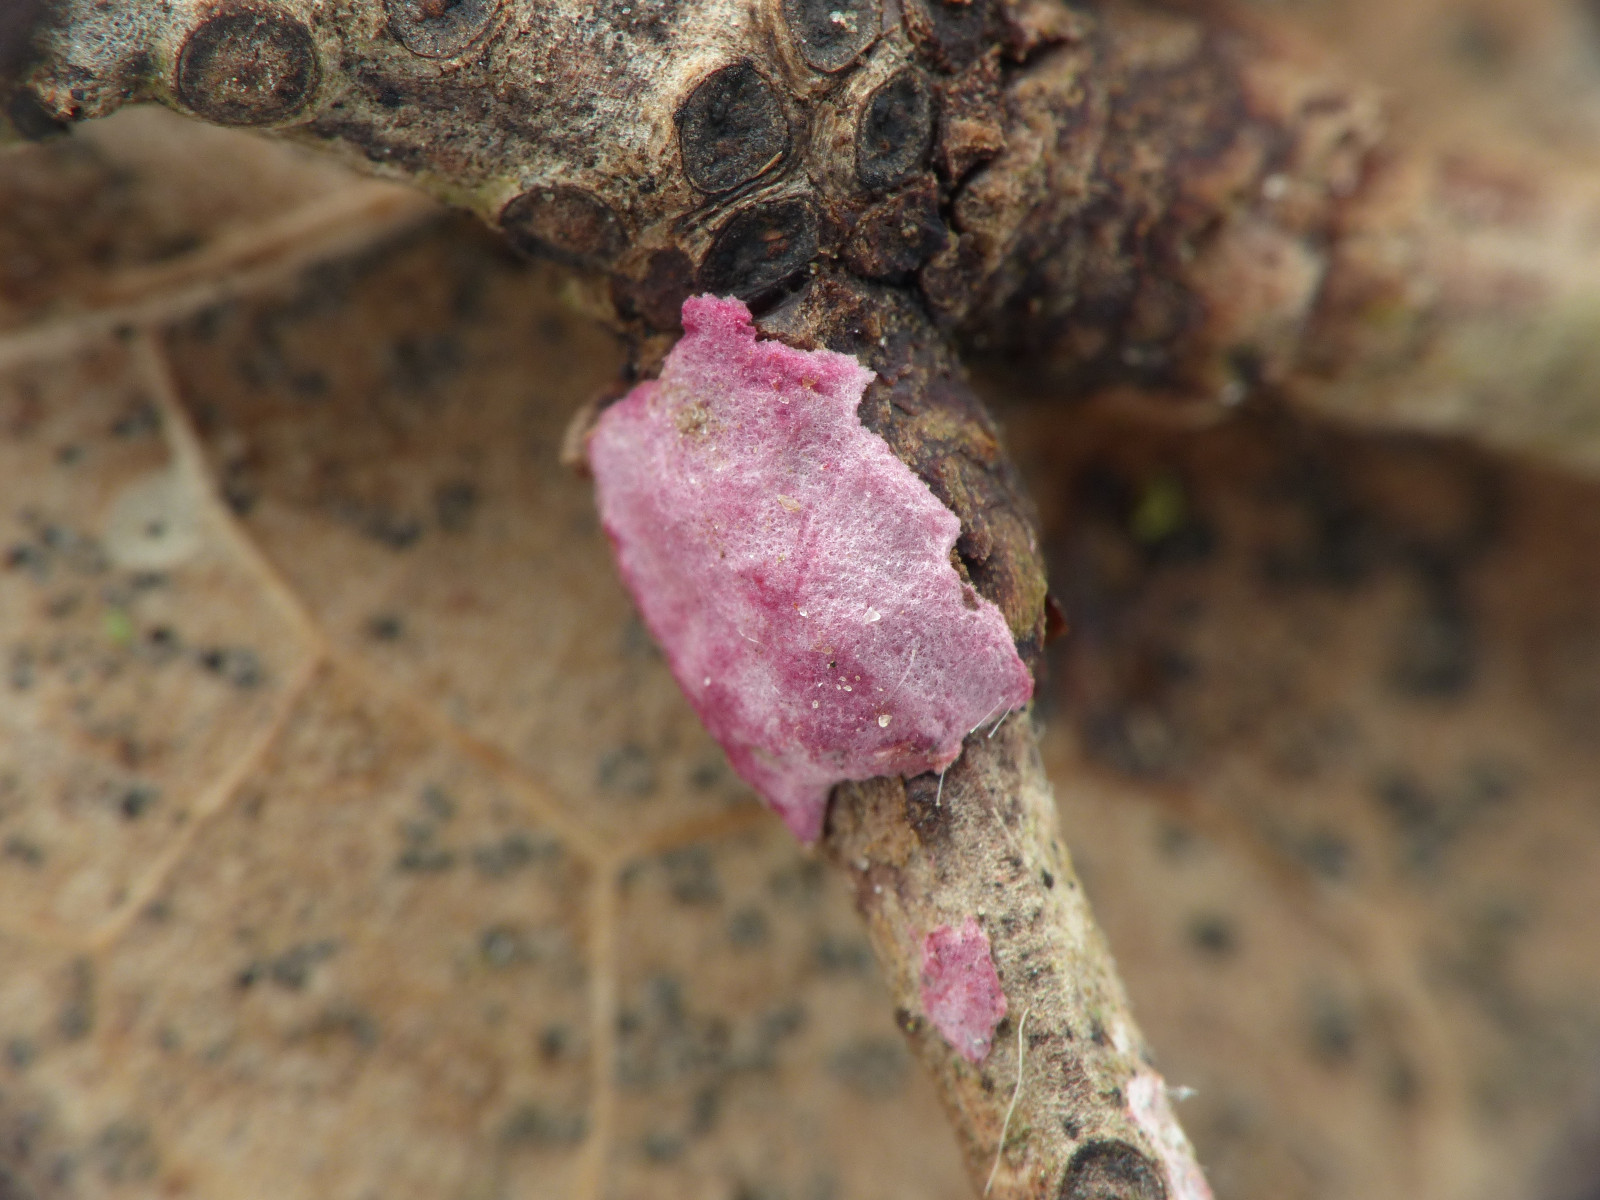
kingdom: Fungi
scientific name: Fungi
